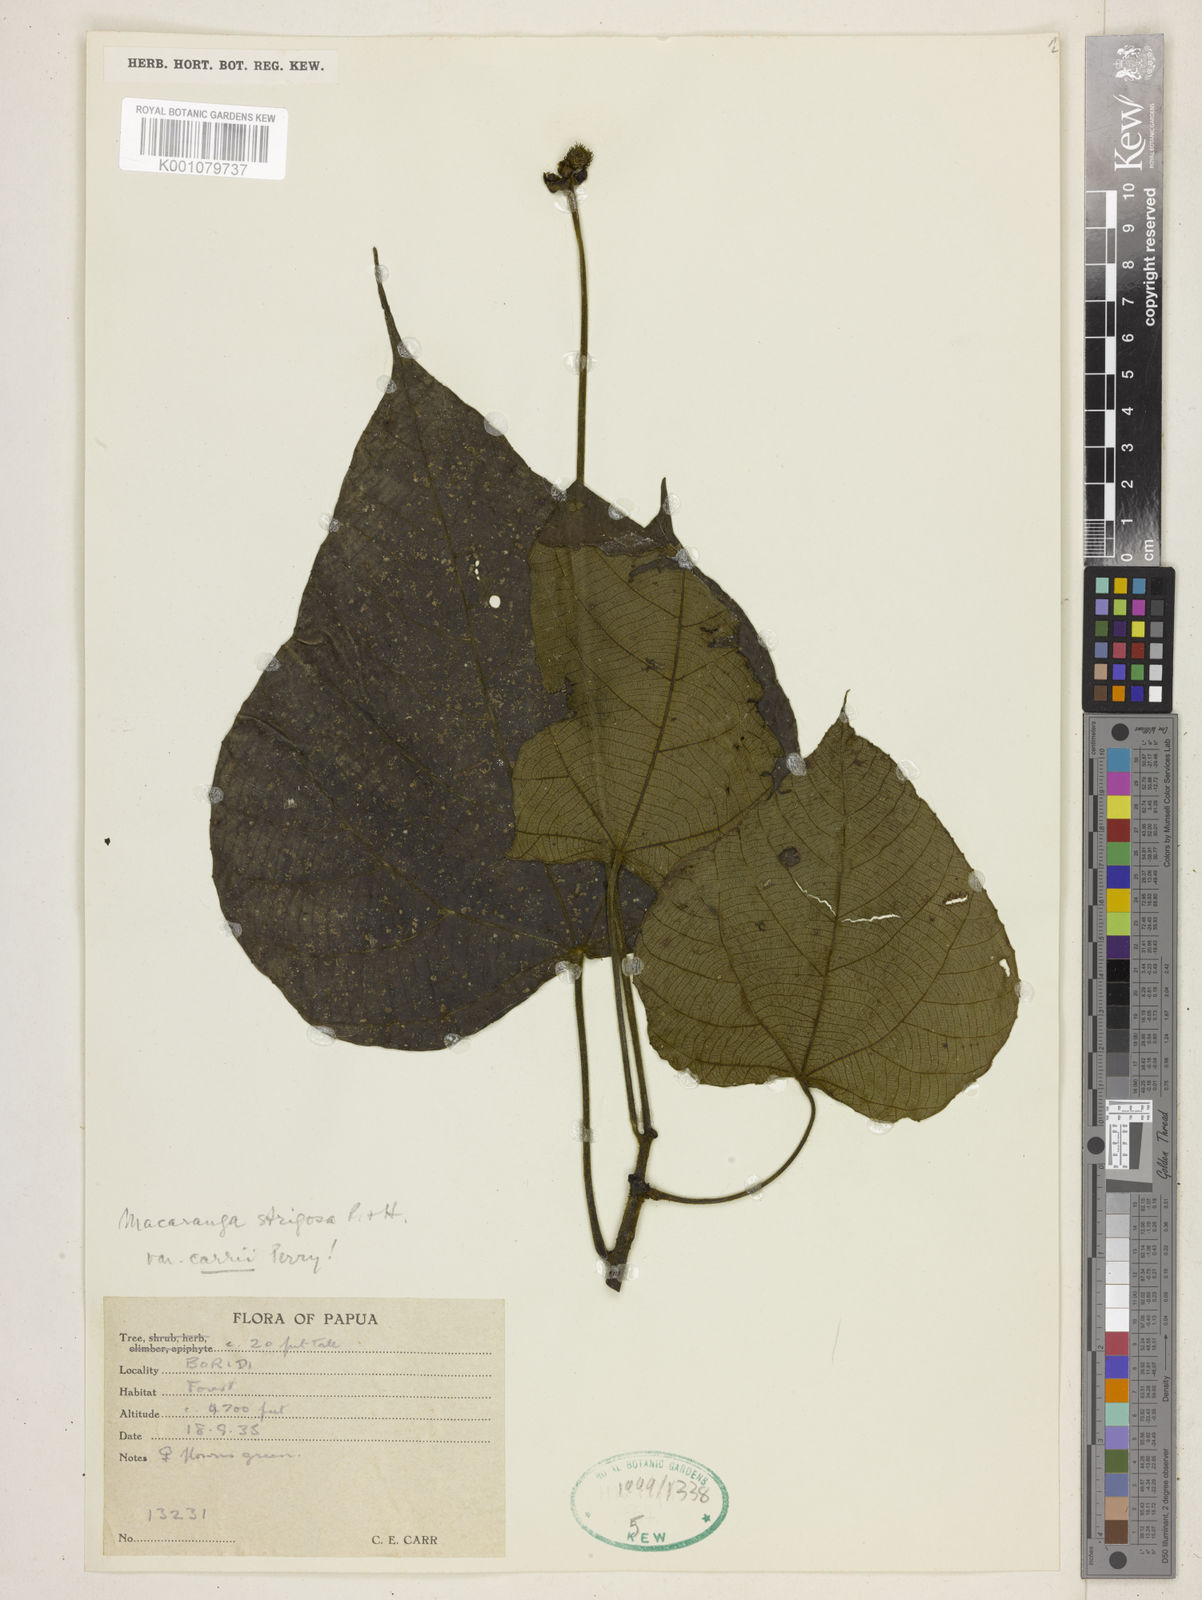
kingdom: Plantae
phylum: Tracheophyta
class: Magnoliopsida
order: Malpighiales
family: Euphorbiaceae
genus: Macaranga
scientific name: Macaranga strigosa
